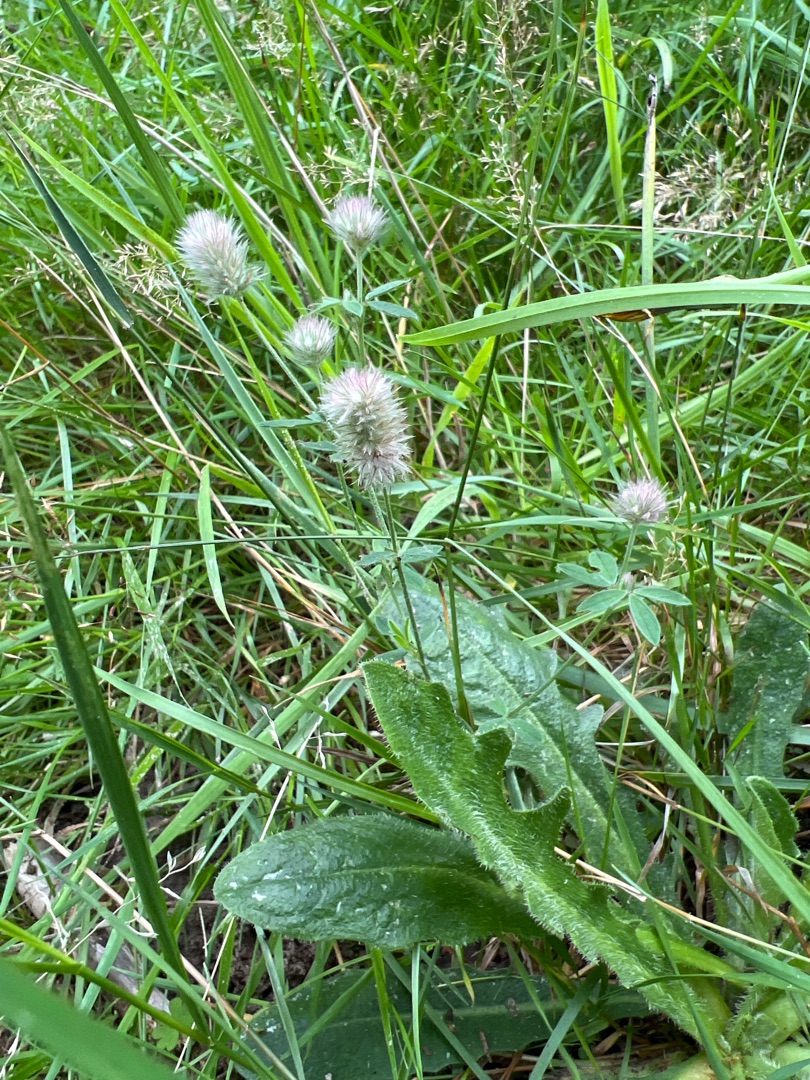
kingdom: Plantae
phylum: Tracheophyta
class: Magnoliopsida
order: Fabales
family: Fabaceae
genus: Trifolium
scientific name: Trifolium arvense
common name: Hare-kløver
